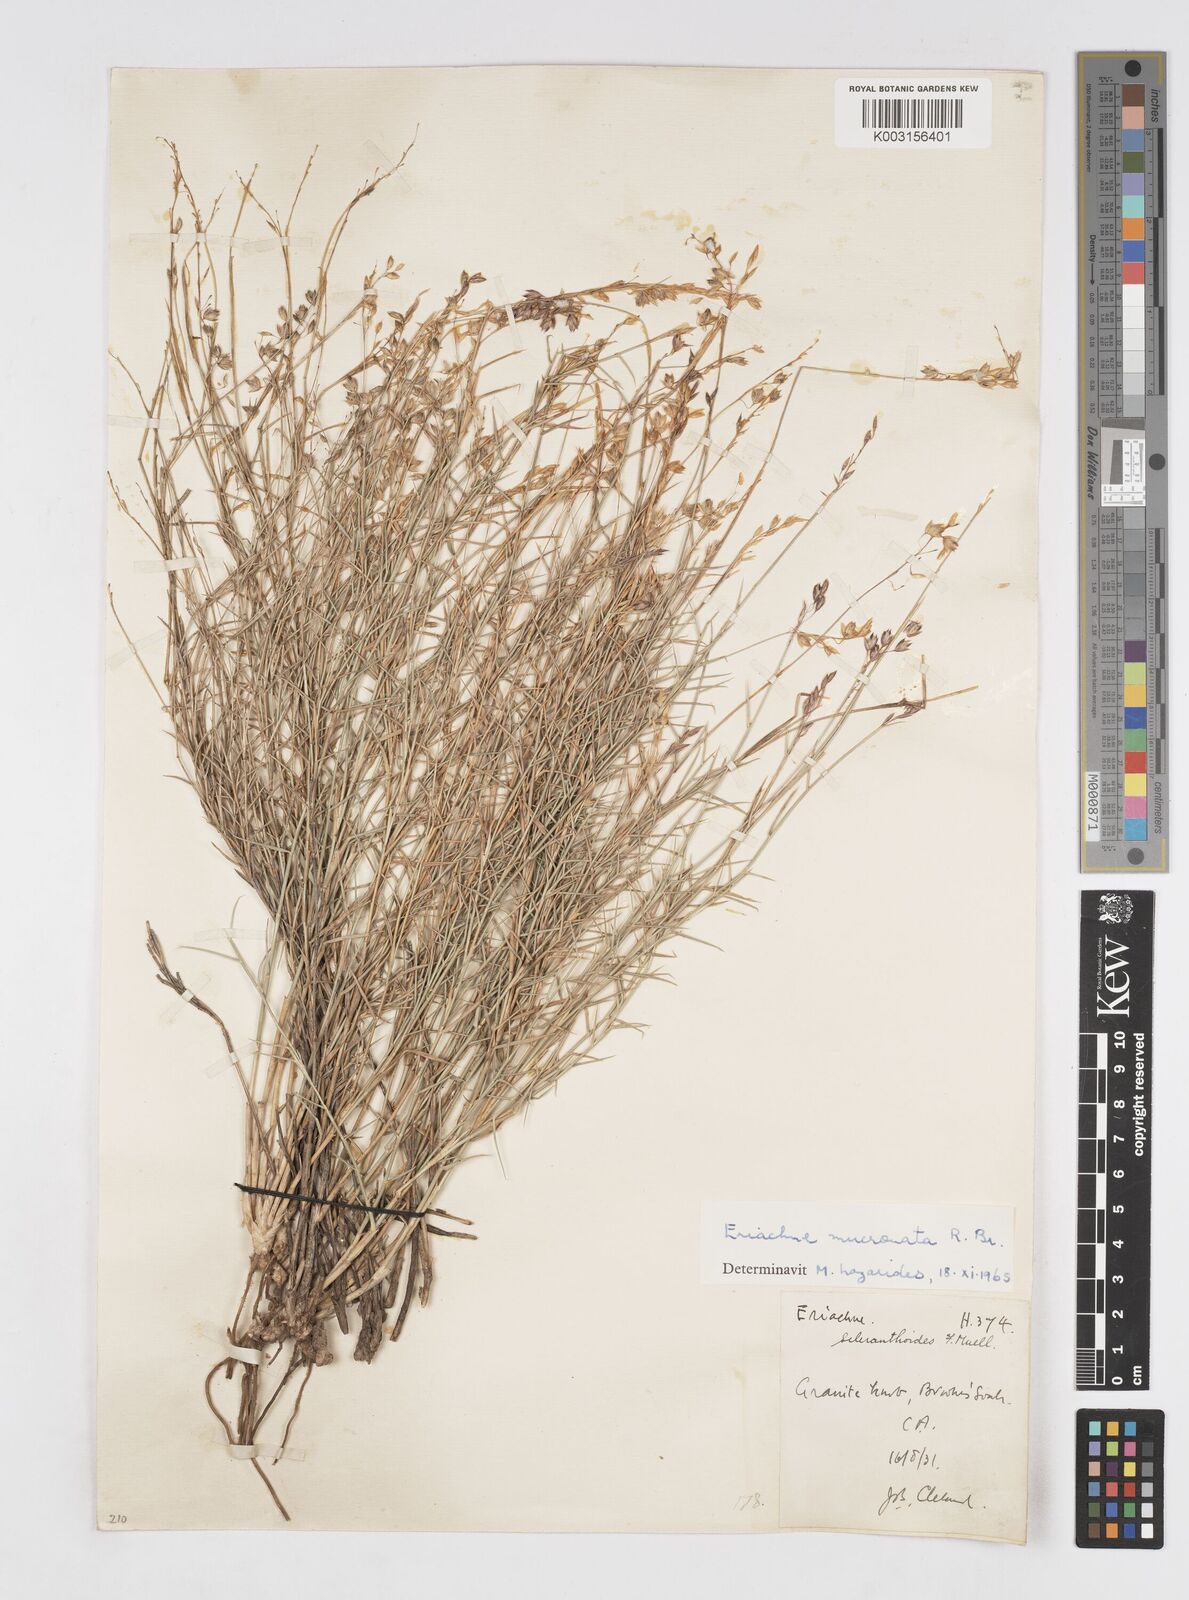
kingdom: Plantae
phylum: Tracheophyta
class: Liliopsida
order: Poales
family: Poaceae
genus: Eriachne
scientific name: Eriachne mucronata
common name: Mountain wanderrie grass
